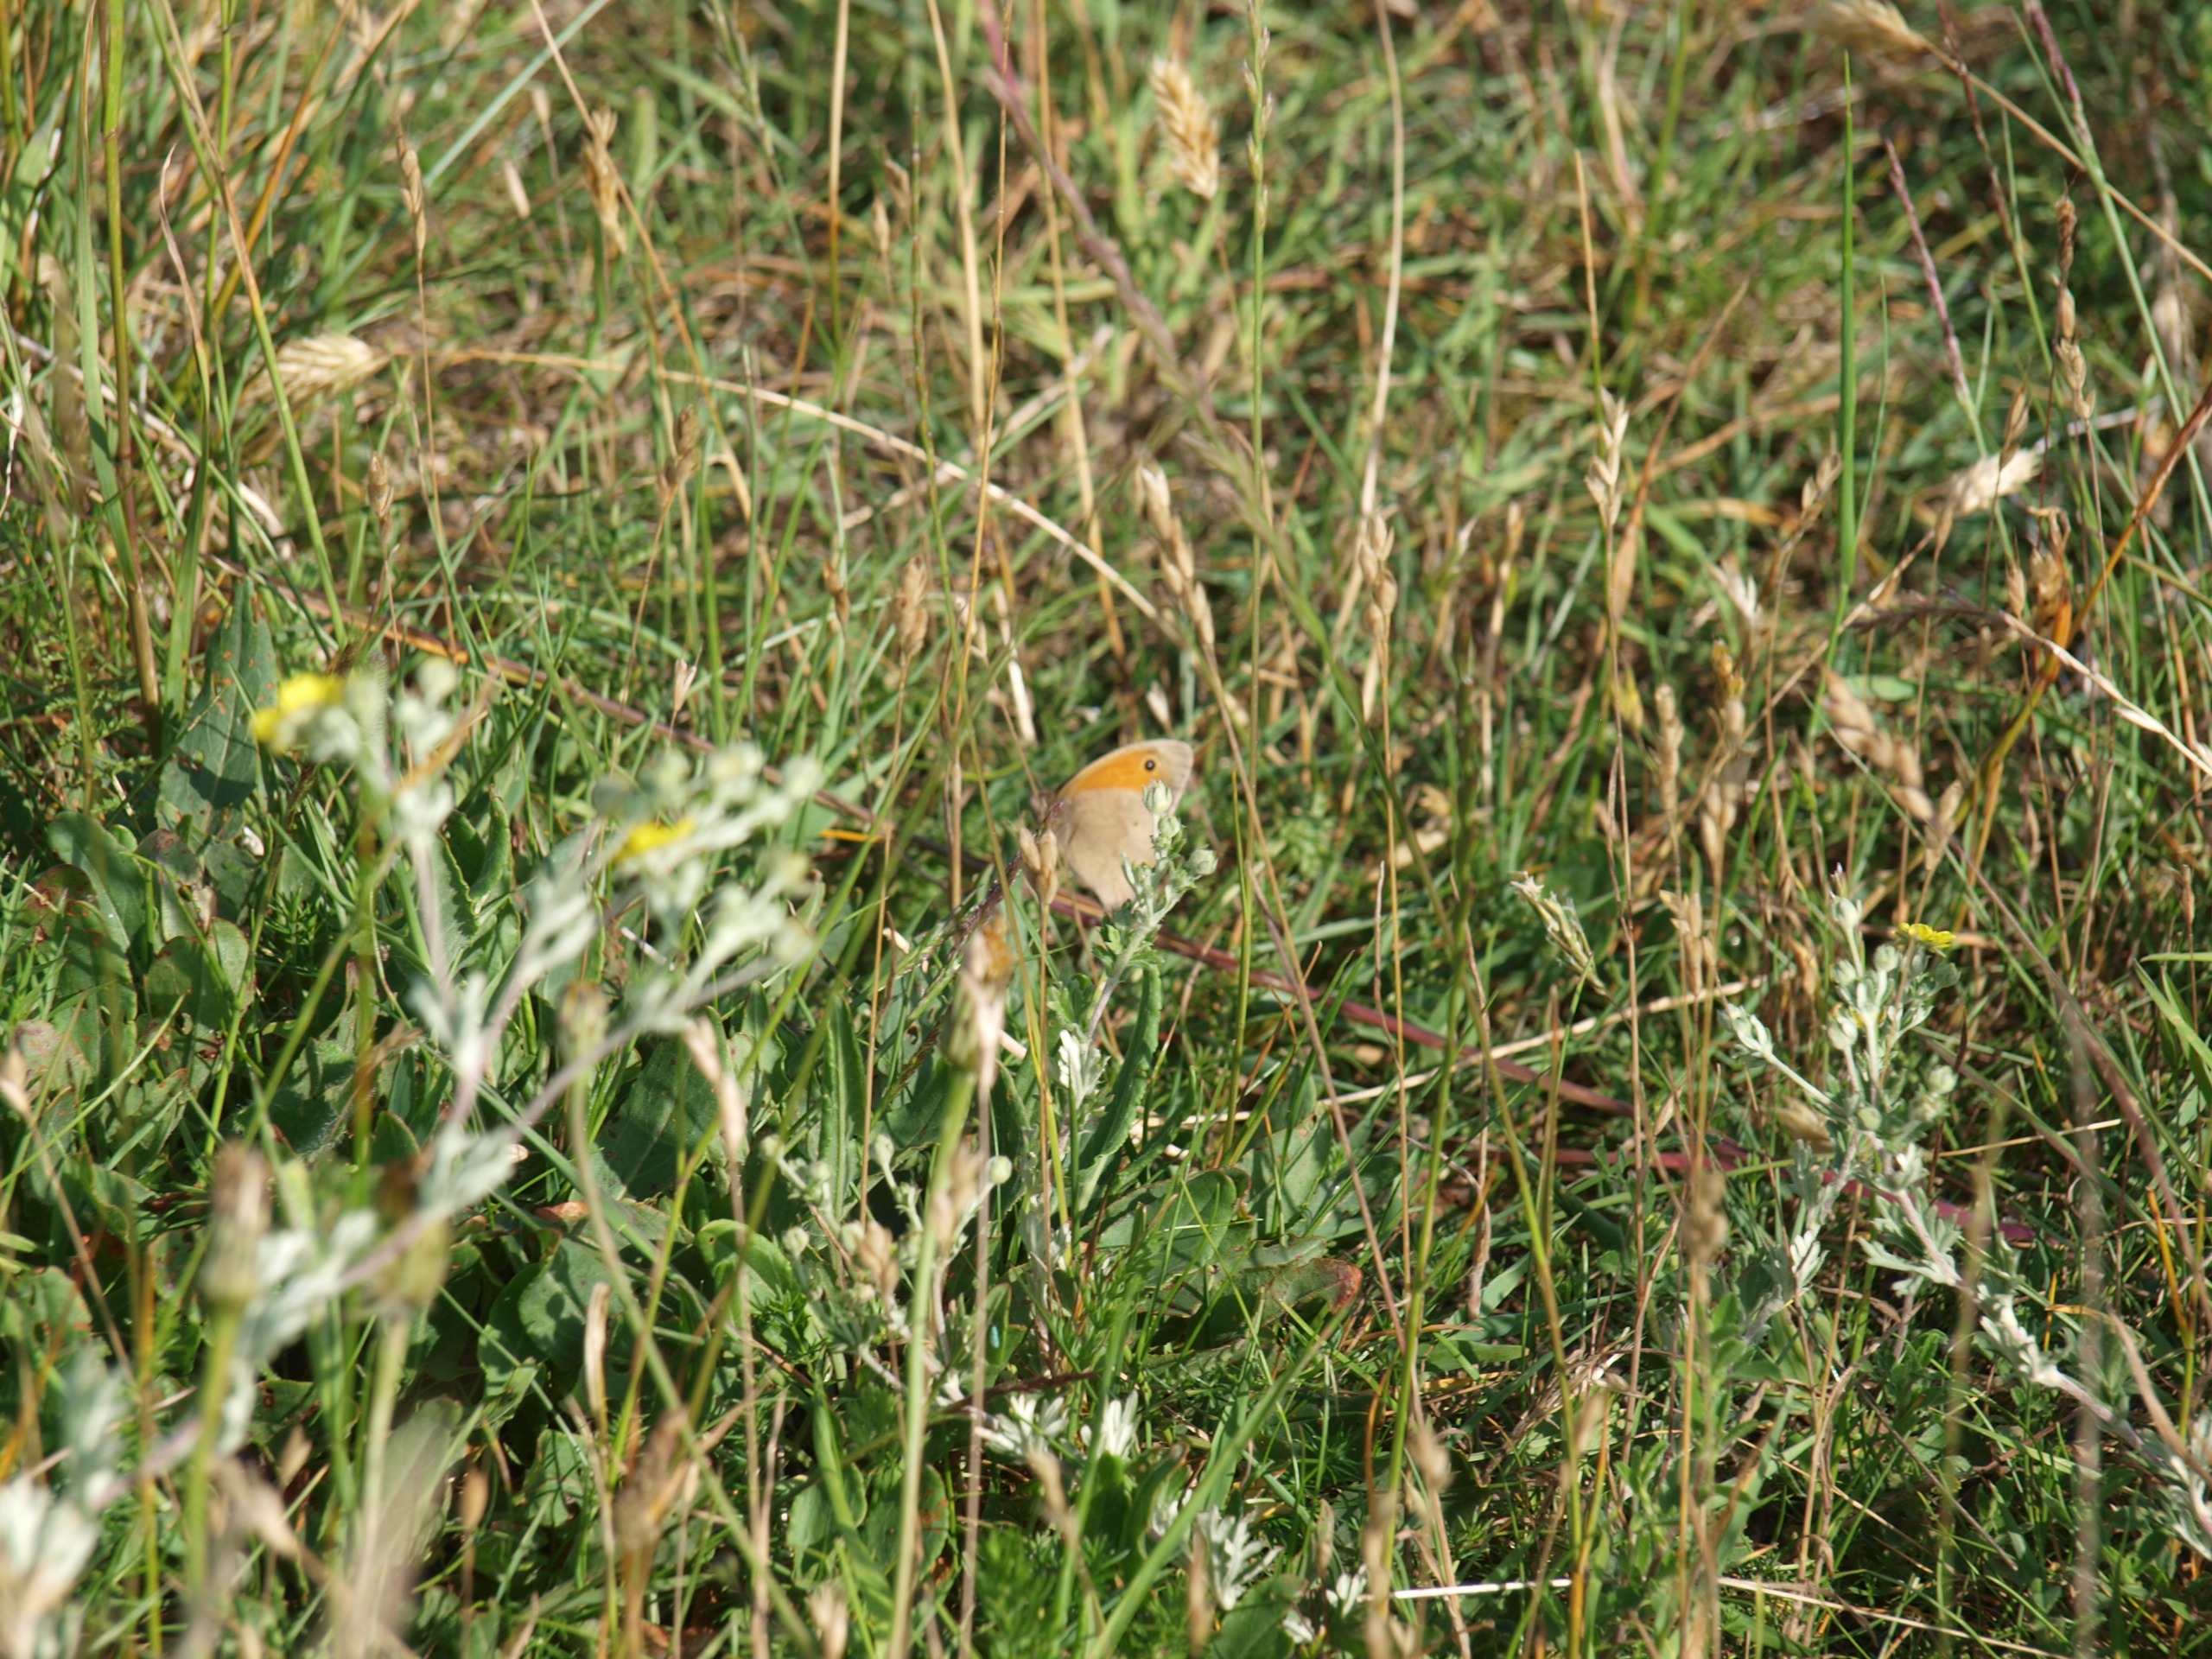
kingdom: Animalia
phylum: Arthropoda
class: Insecta
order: Lepidoptera
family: Nymphalidae
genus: Maniola
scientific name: Maniola jurtina
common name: Græsrandøje
